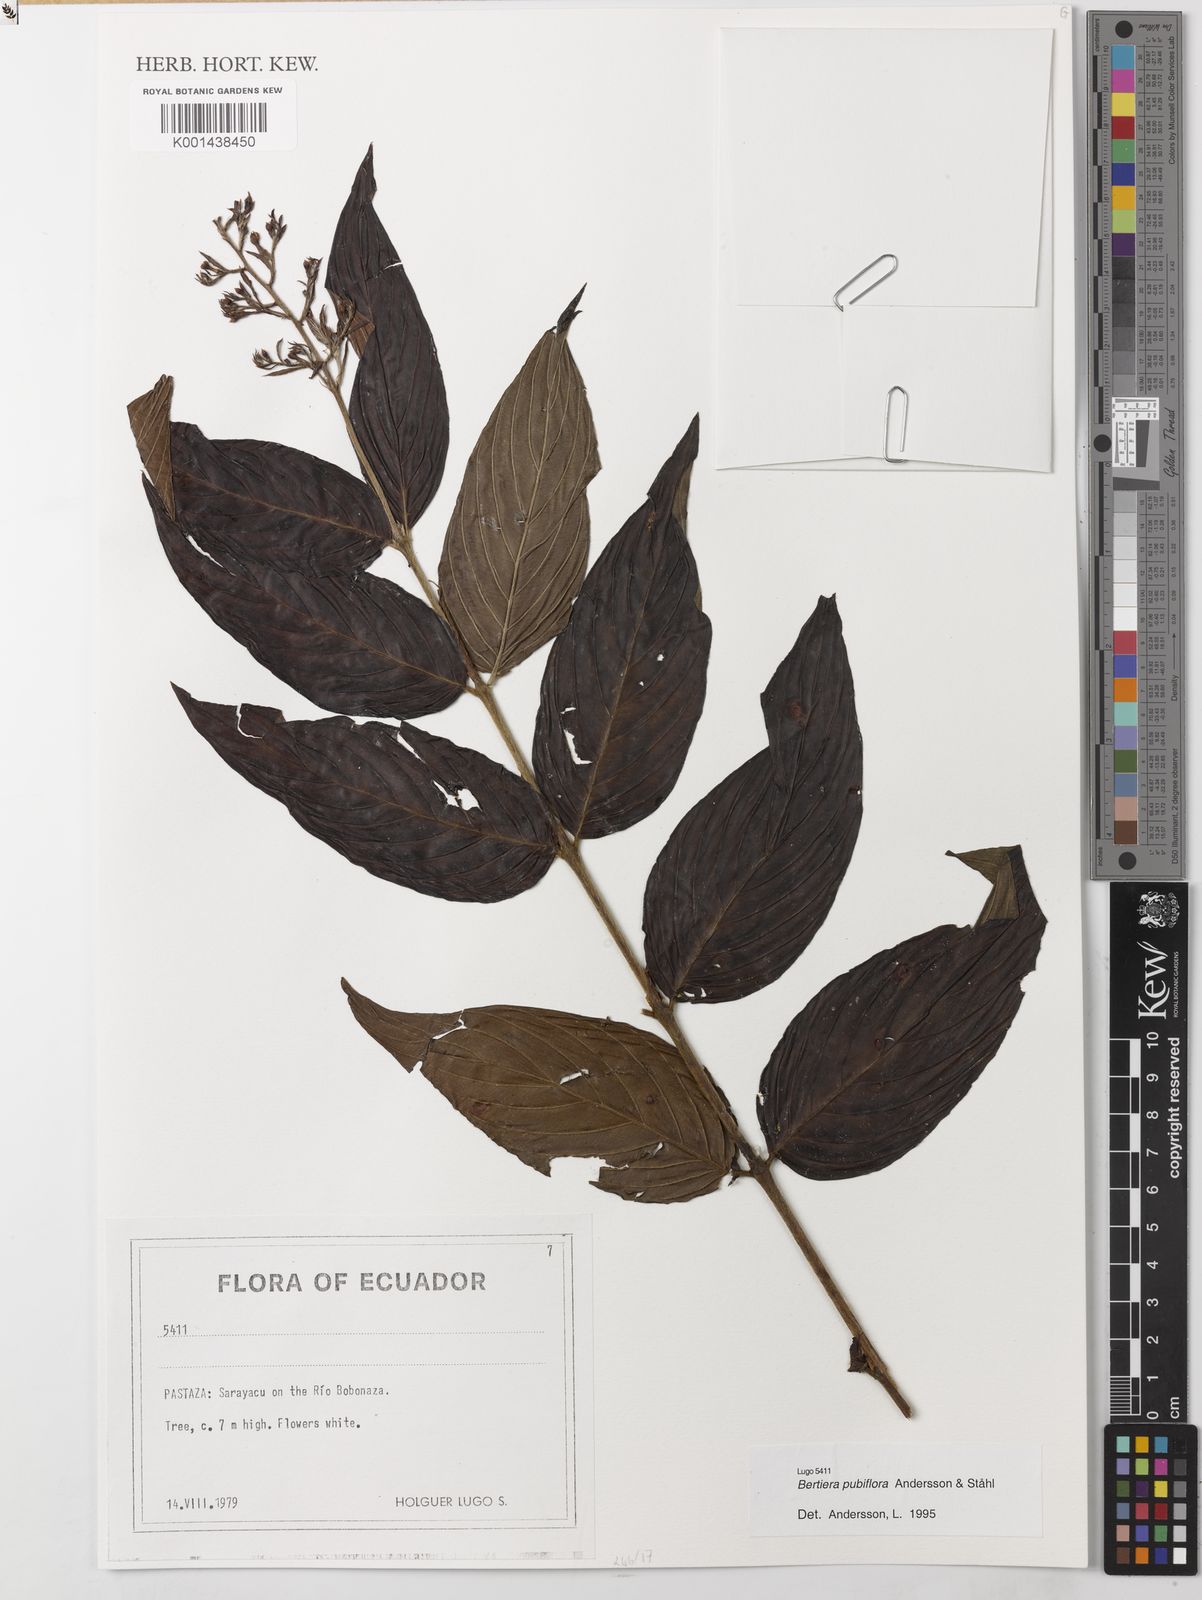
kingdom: Plantae
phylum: Tracheophyta
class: Magnoliopsida
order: Gentianales
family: Rubiaceae
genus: Bertiera
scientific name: Bertiera
